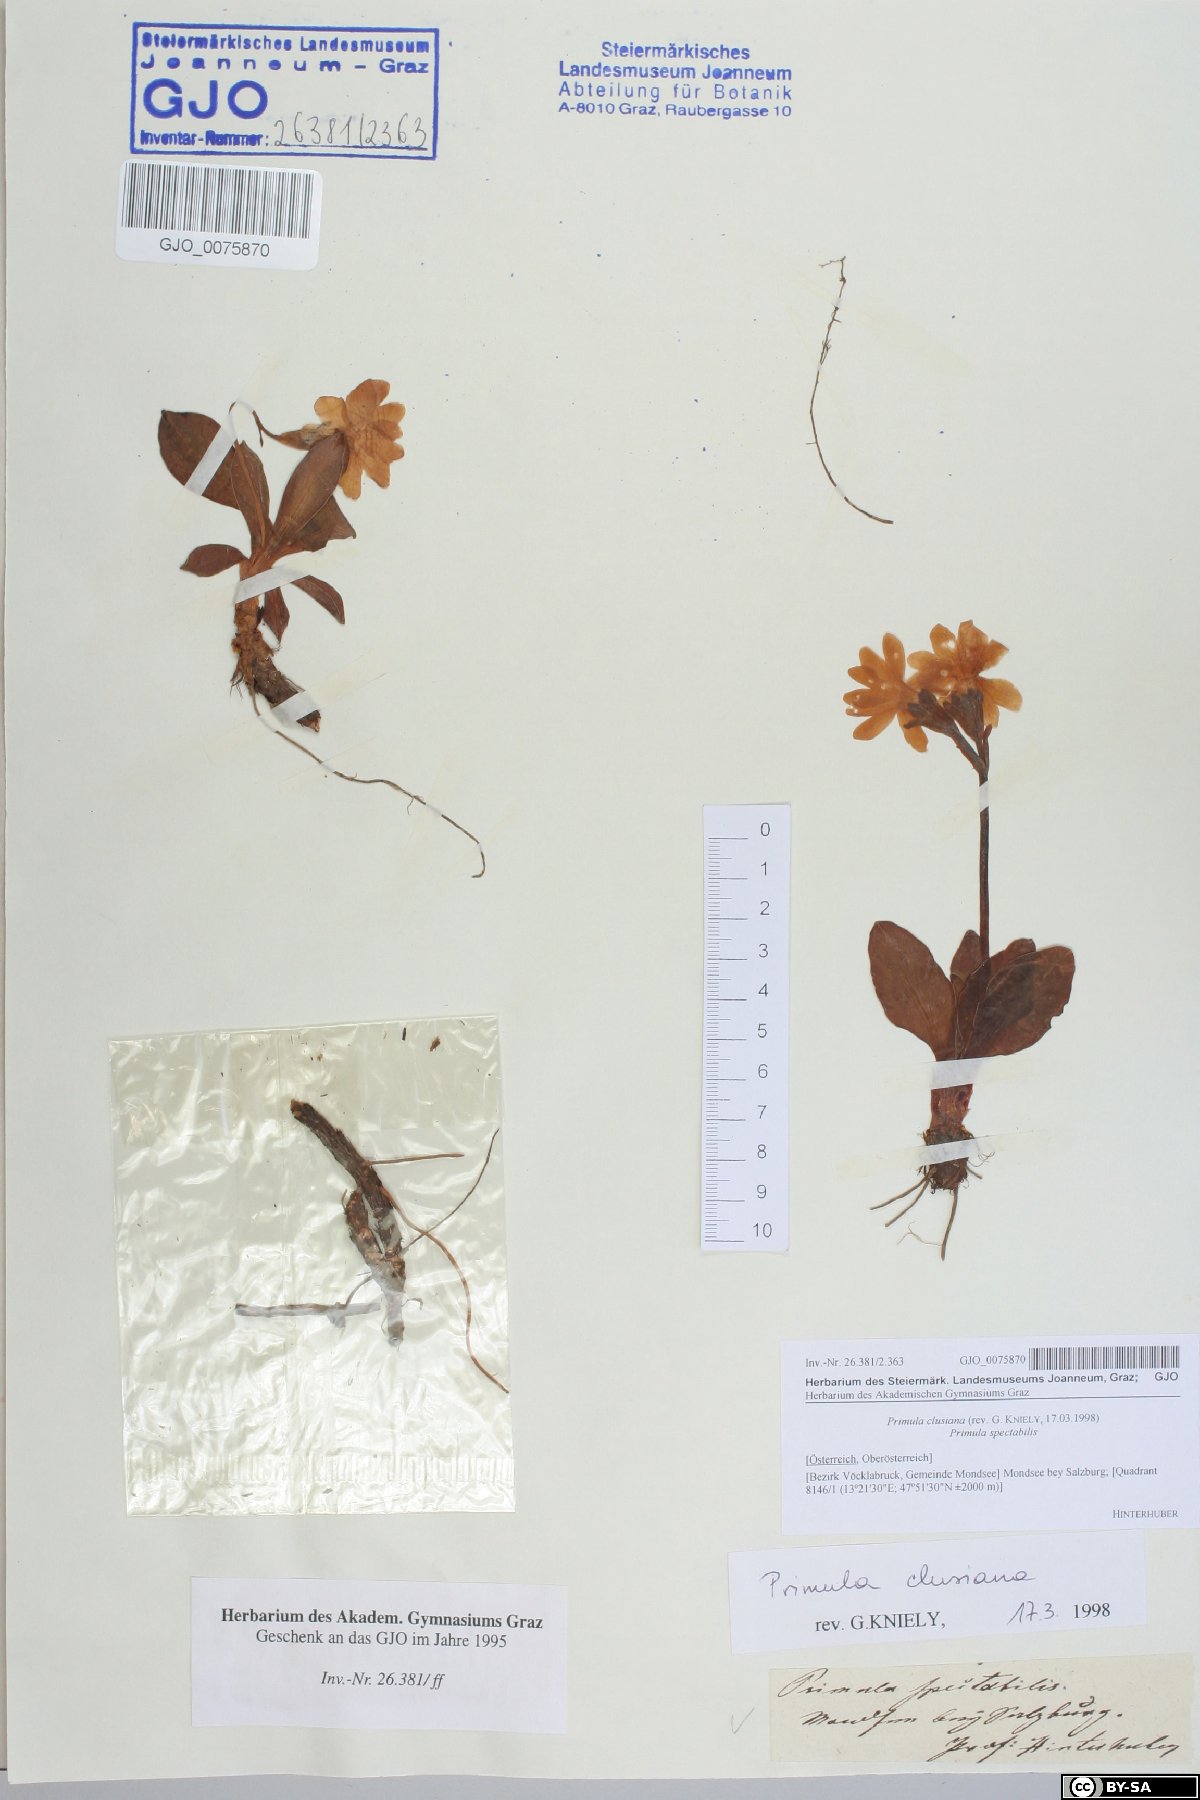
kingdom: Plantae
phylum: Tracheophyta
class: Magnoliopsida
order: Ericales
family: Primulaceae
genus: Primula
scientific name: Primula clusiana
